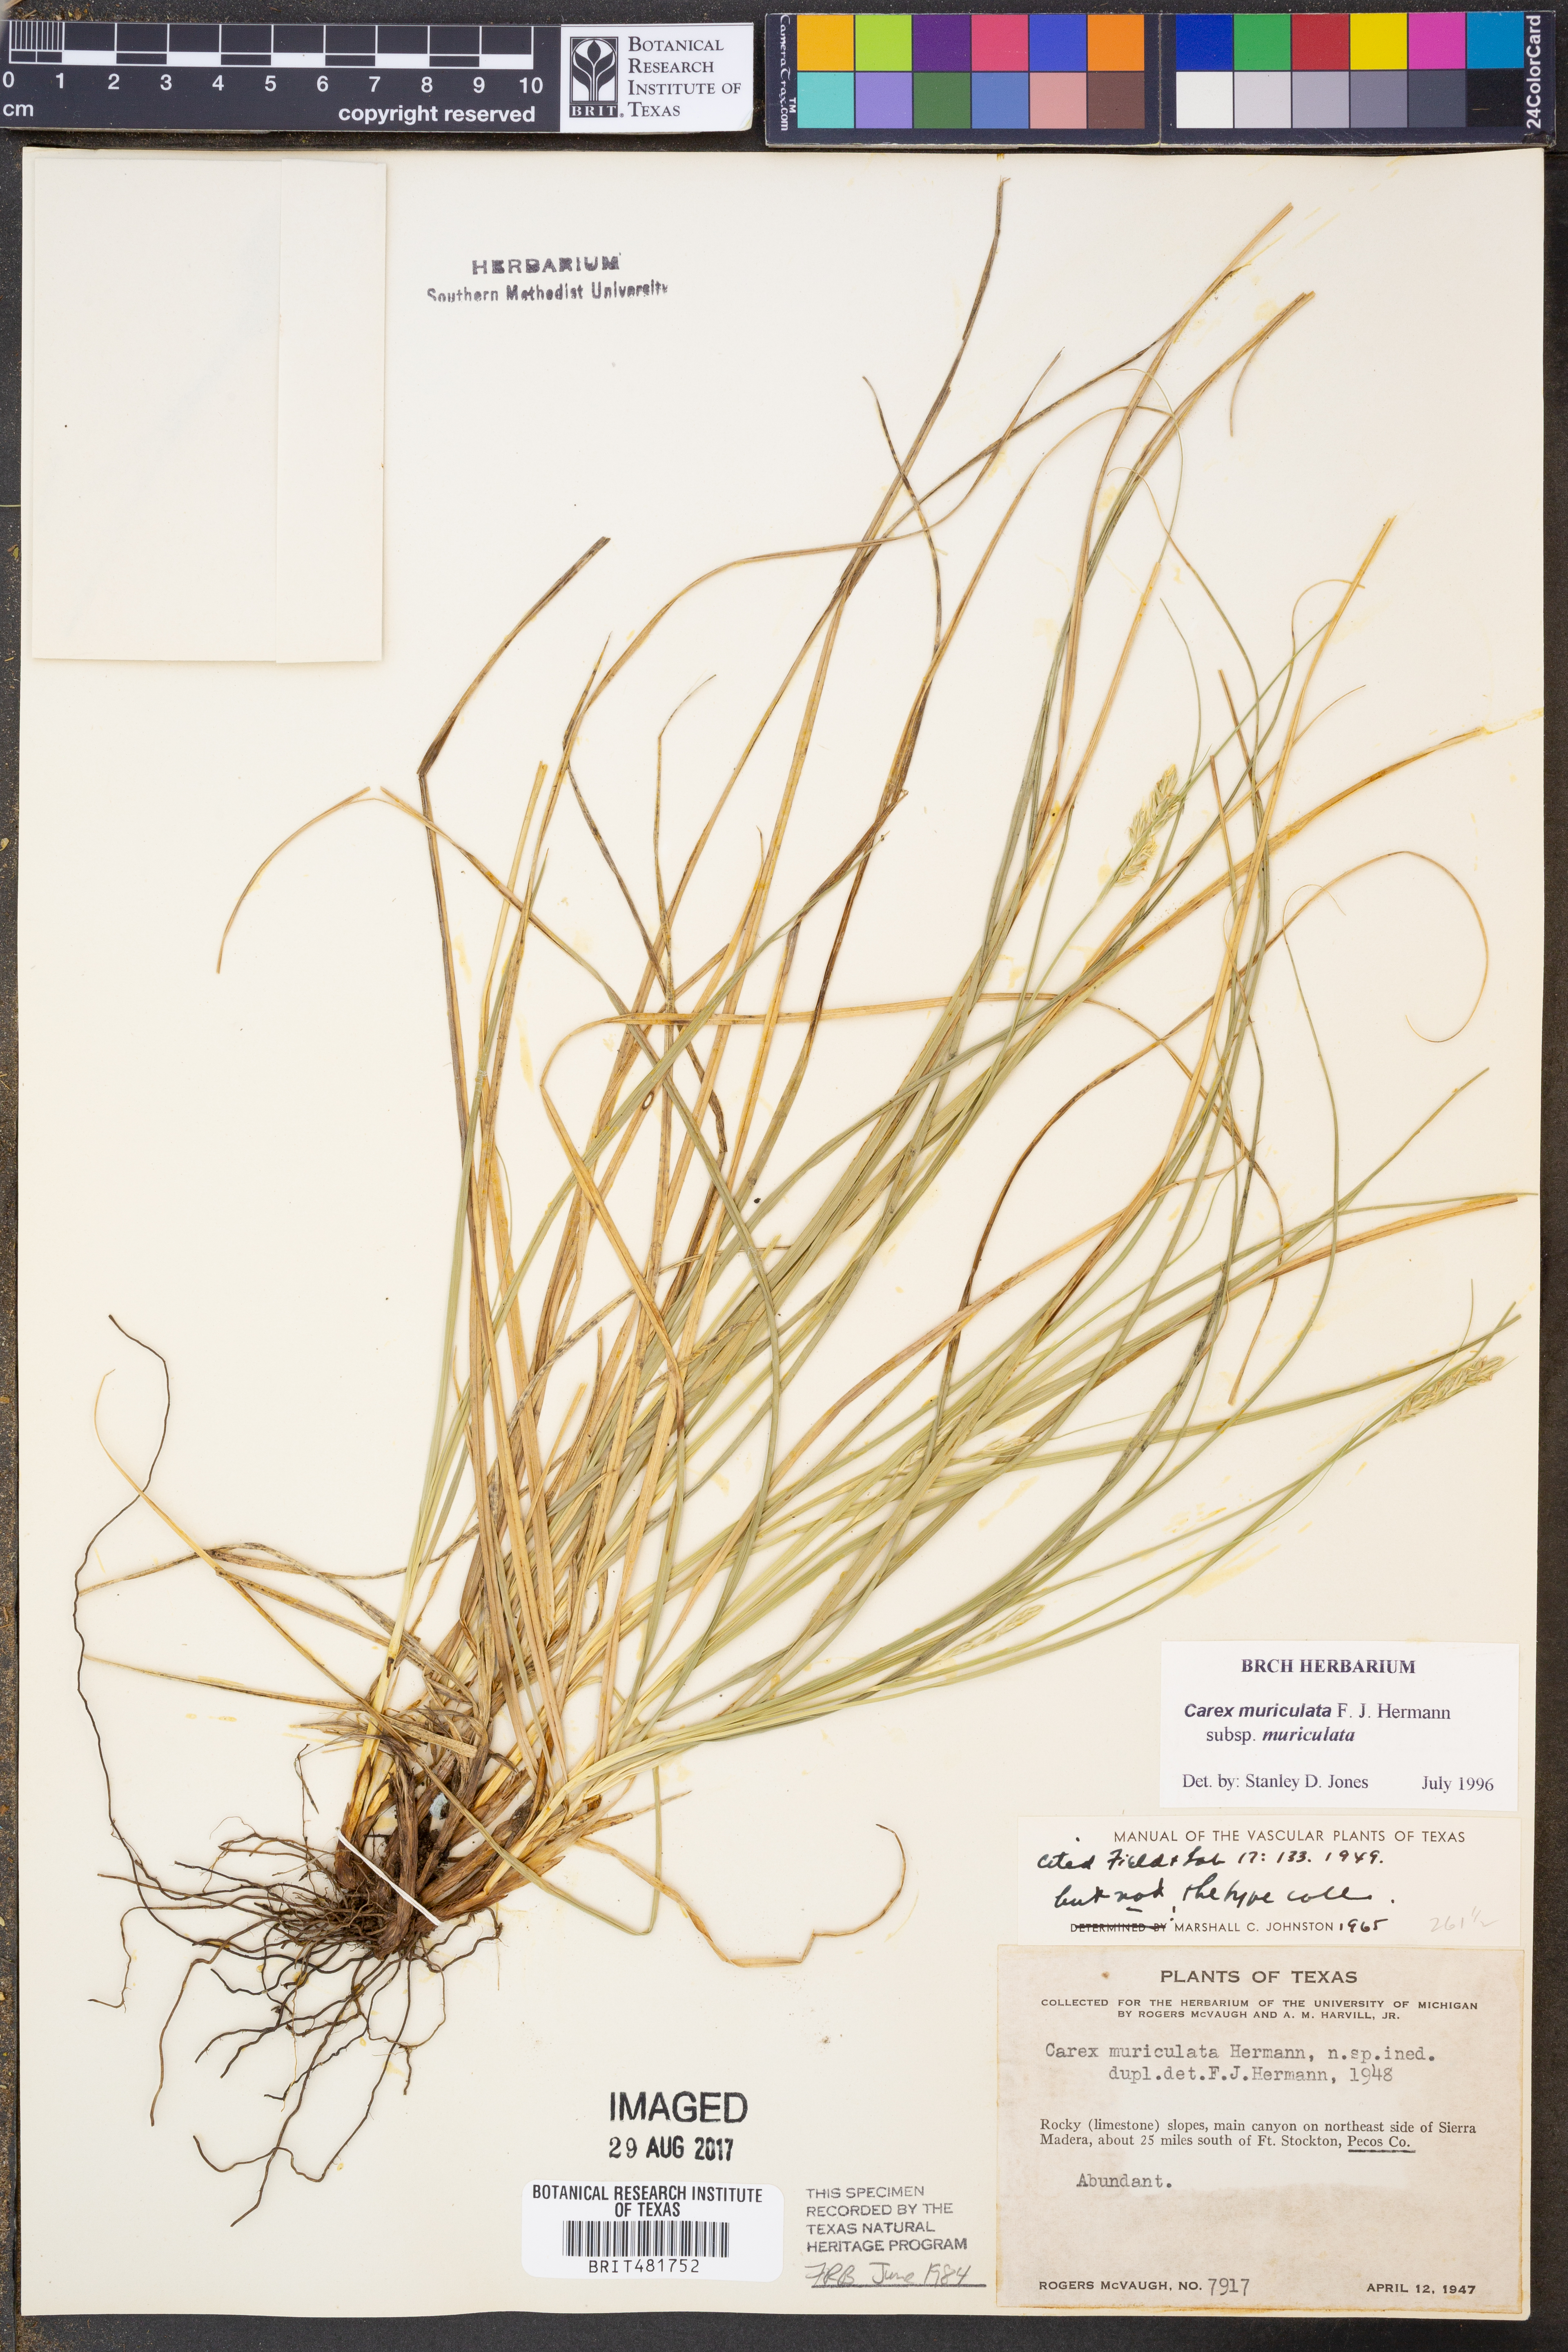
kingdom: Plantae
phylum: Tracheophyta
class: Liliopsida
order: Poales
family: Cyperaceae
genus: Carex
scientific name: Carex muriculata
